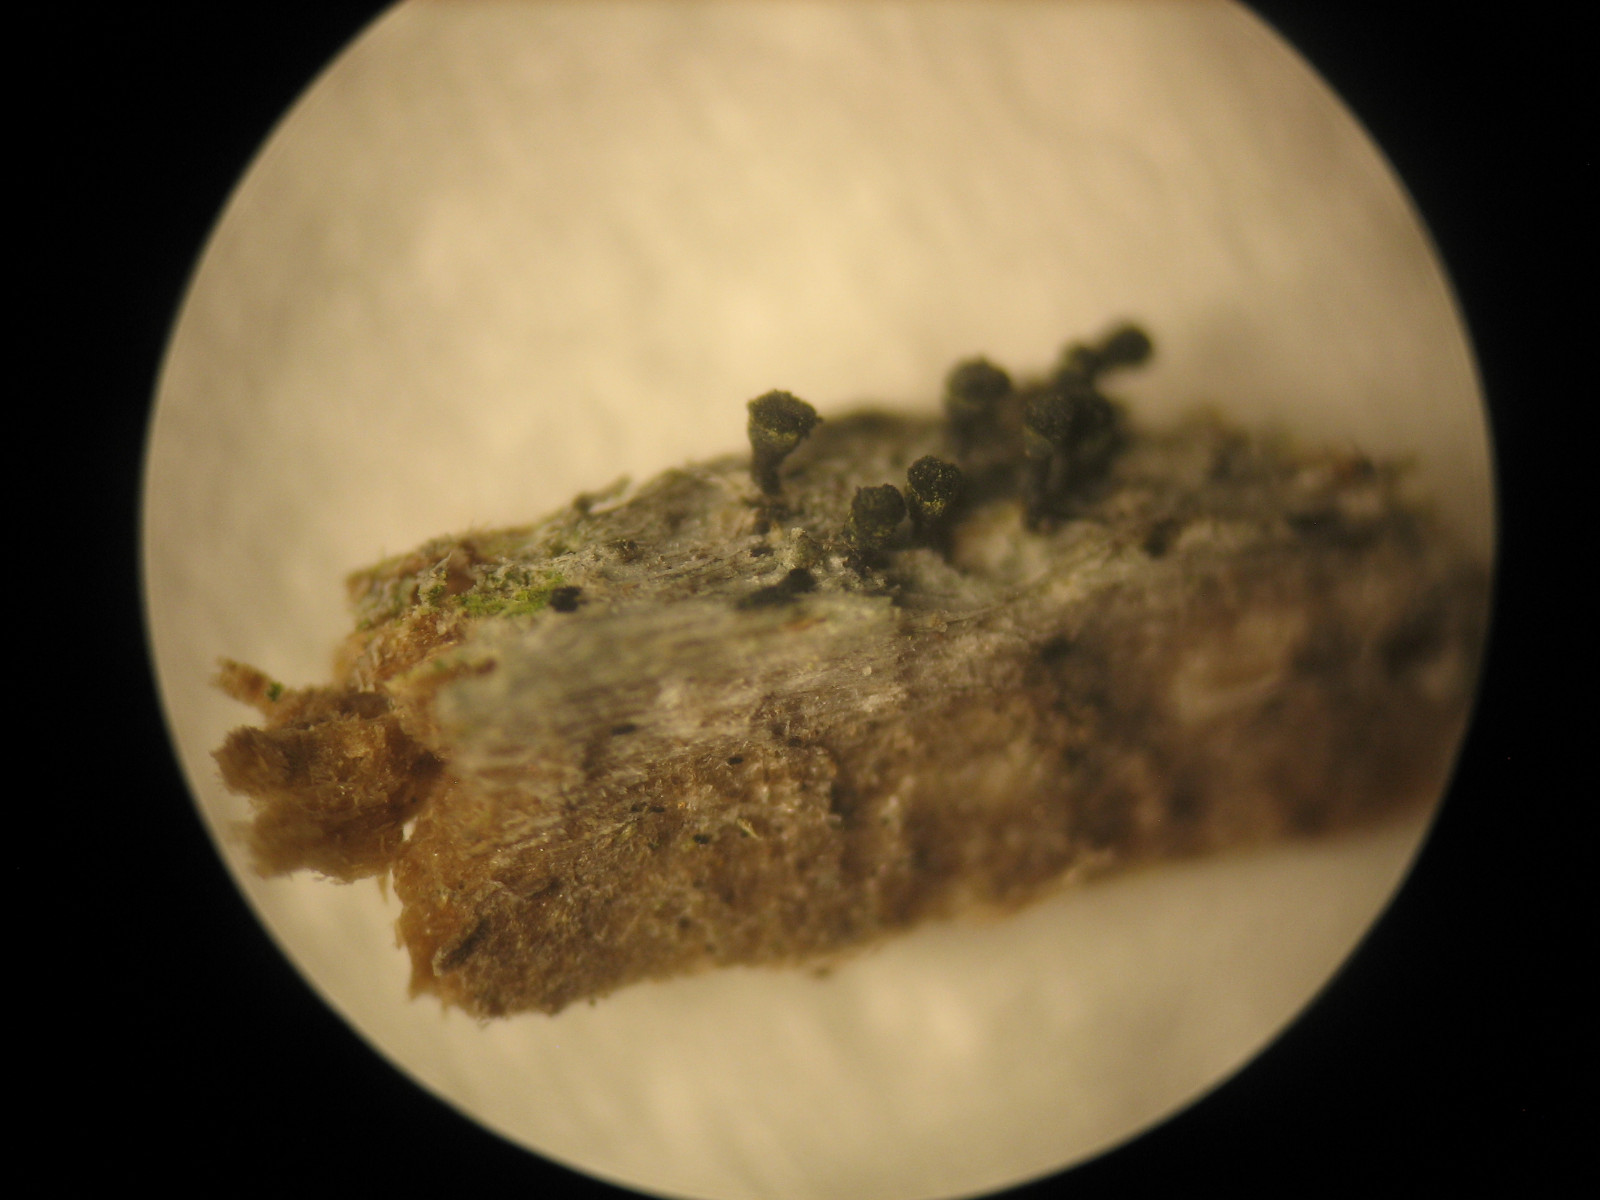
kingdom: Fungi
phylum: Ascomycota
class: Lecanoromycetes
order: Caliciales
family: Caliciaceae
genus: Calicium
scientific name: Calicium trabinellum
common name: ved-nålelav
